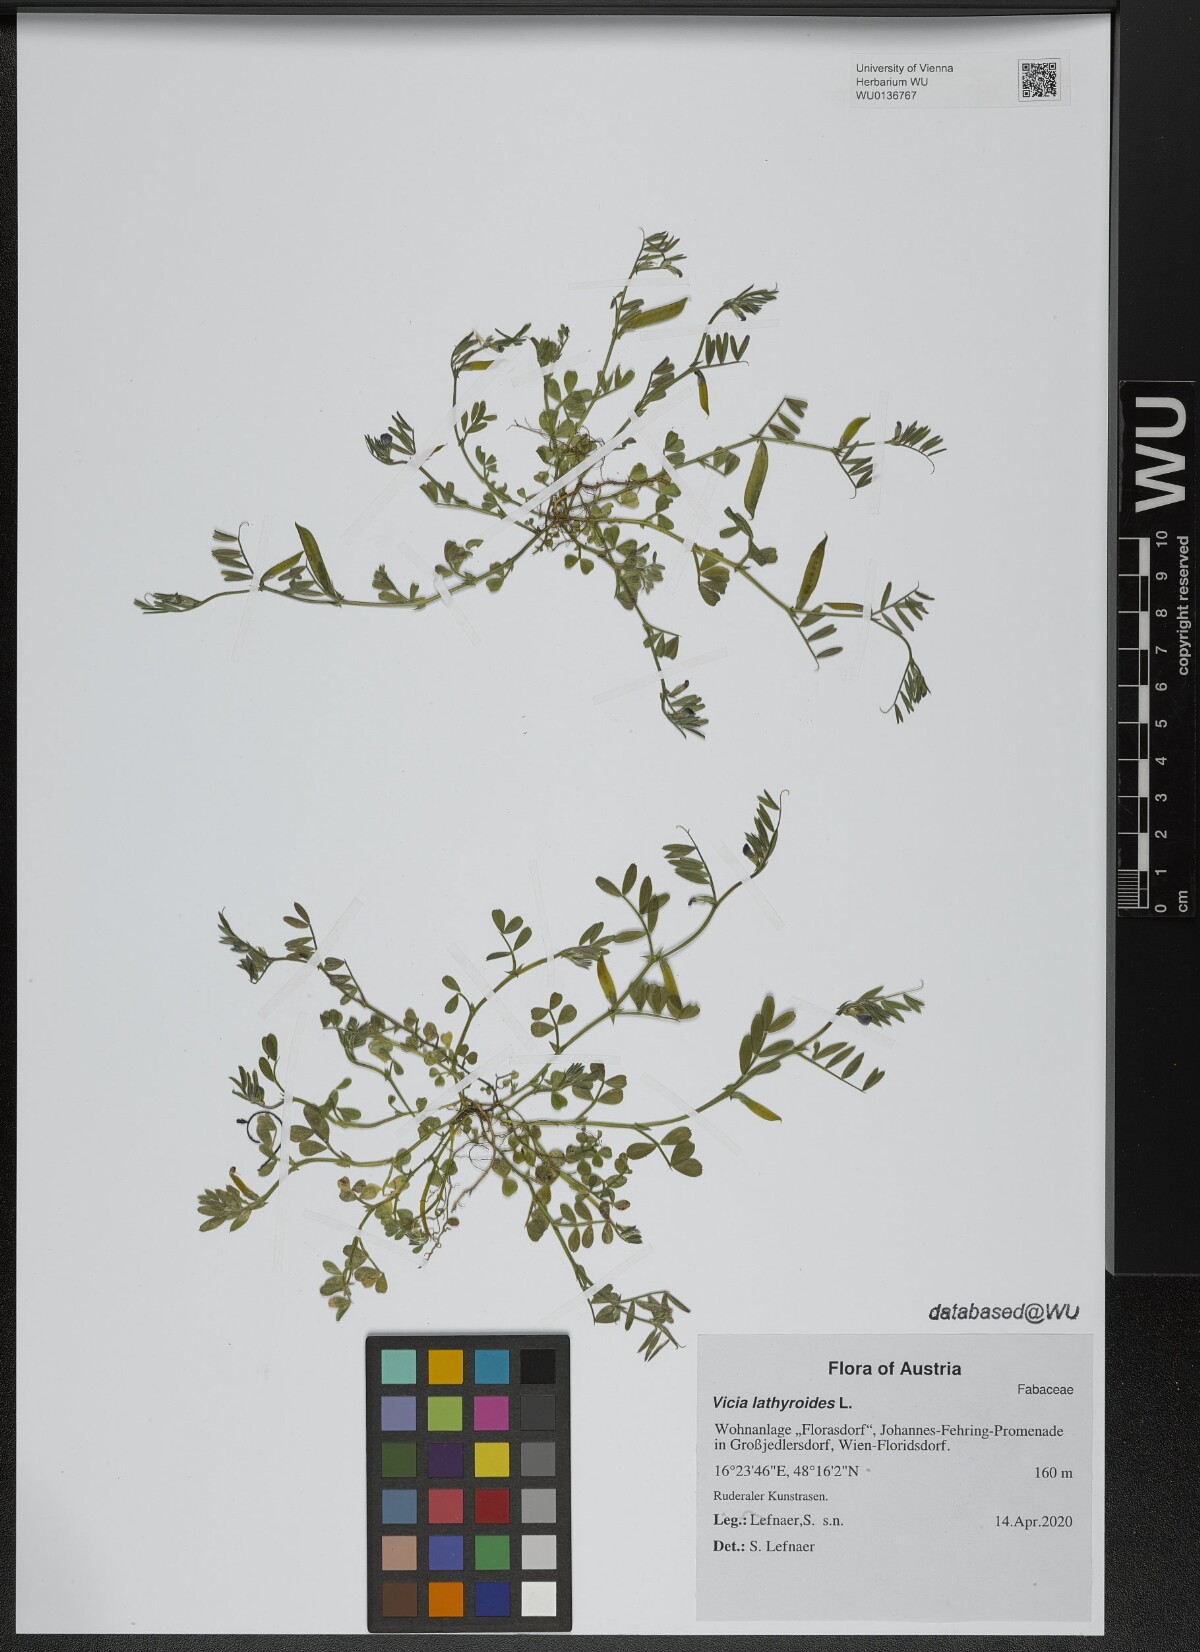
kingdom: Plantae
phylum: Tracheophyta
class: Magnoliopsida
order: Fabales
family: Fabaceae
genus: Vicia
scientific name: Vicia lathyroides
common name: Spring vetch
